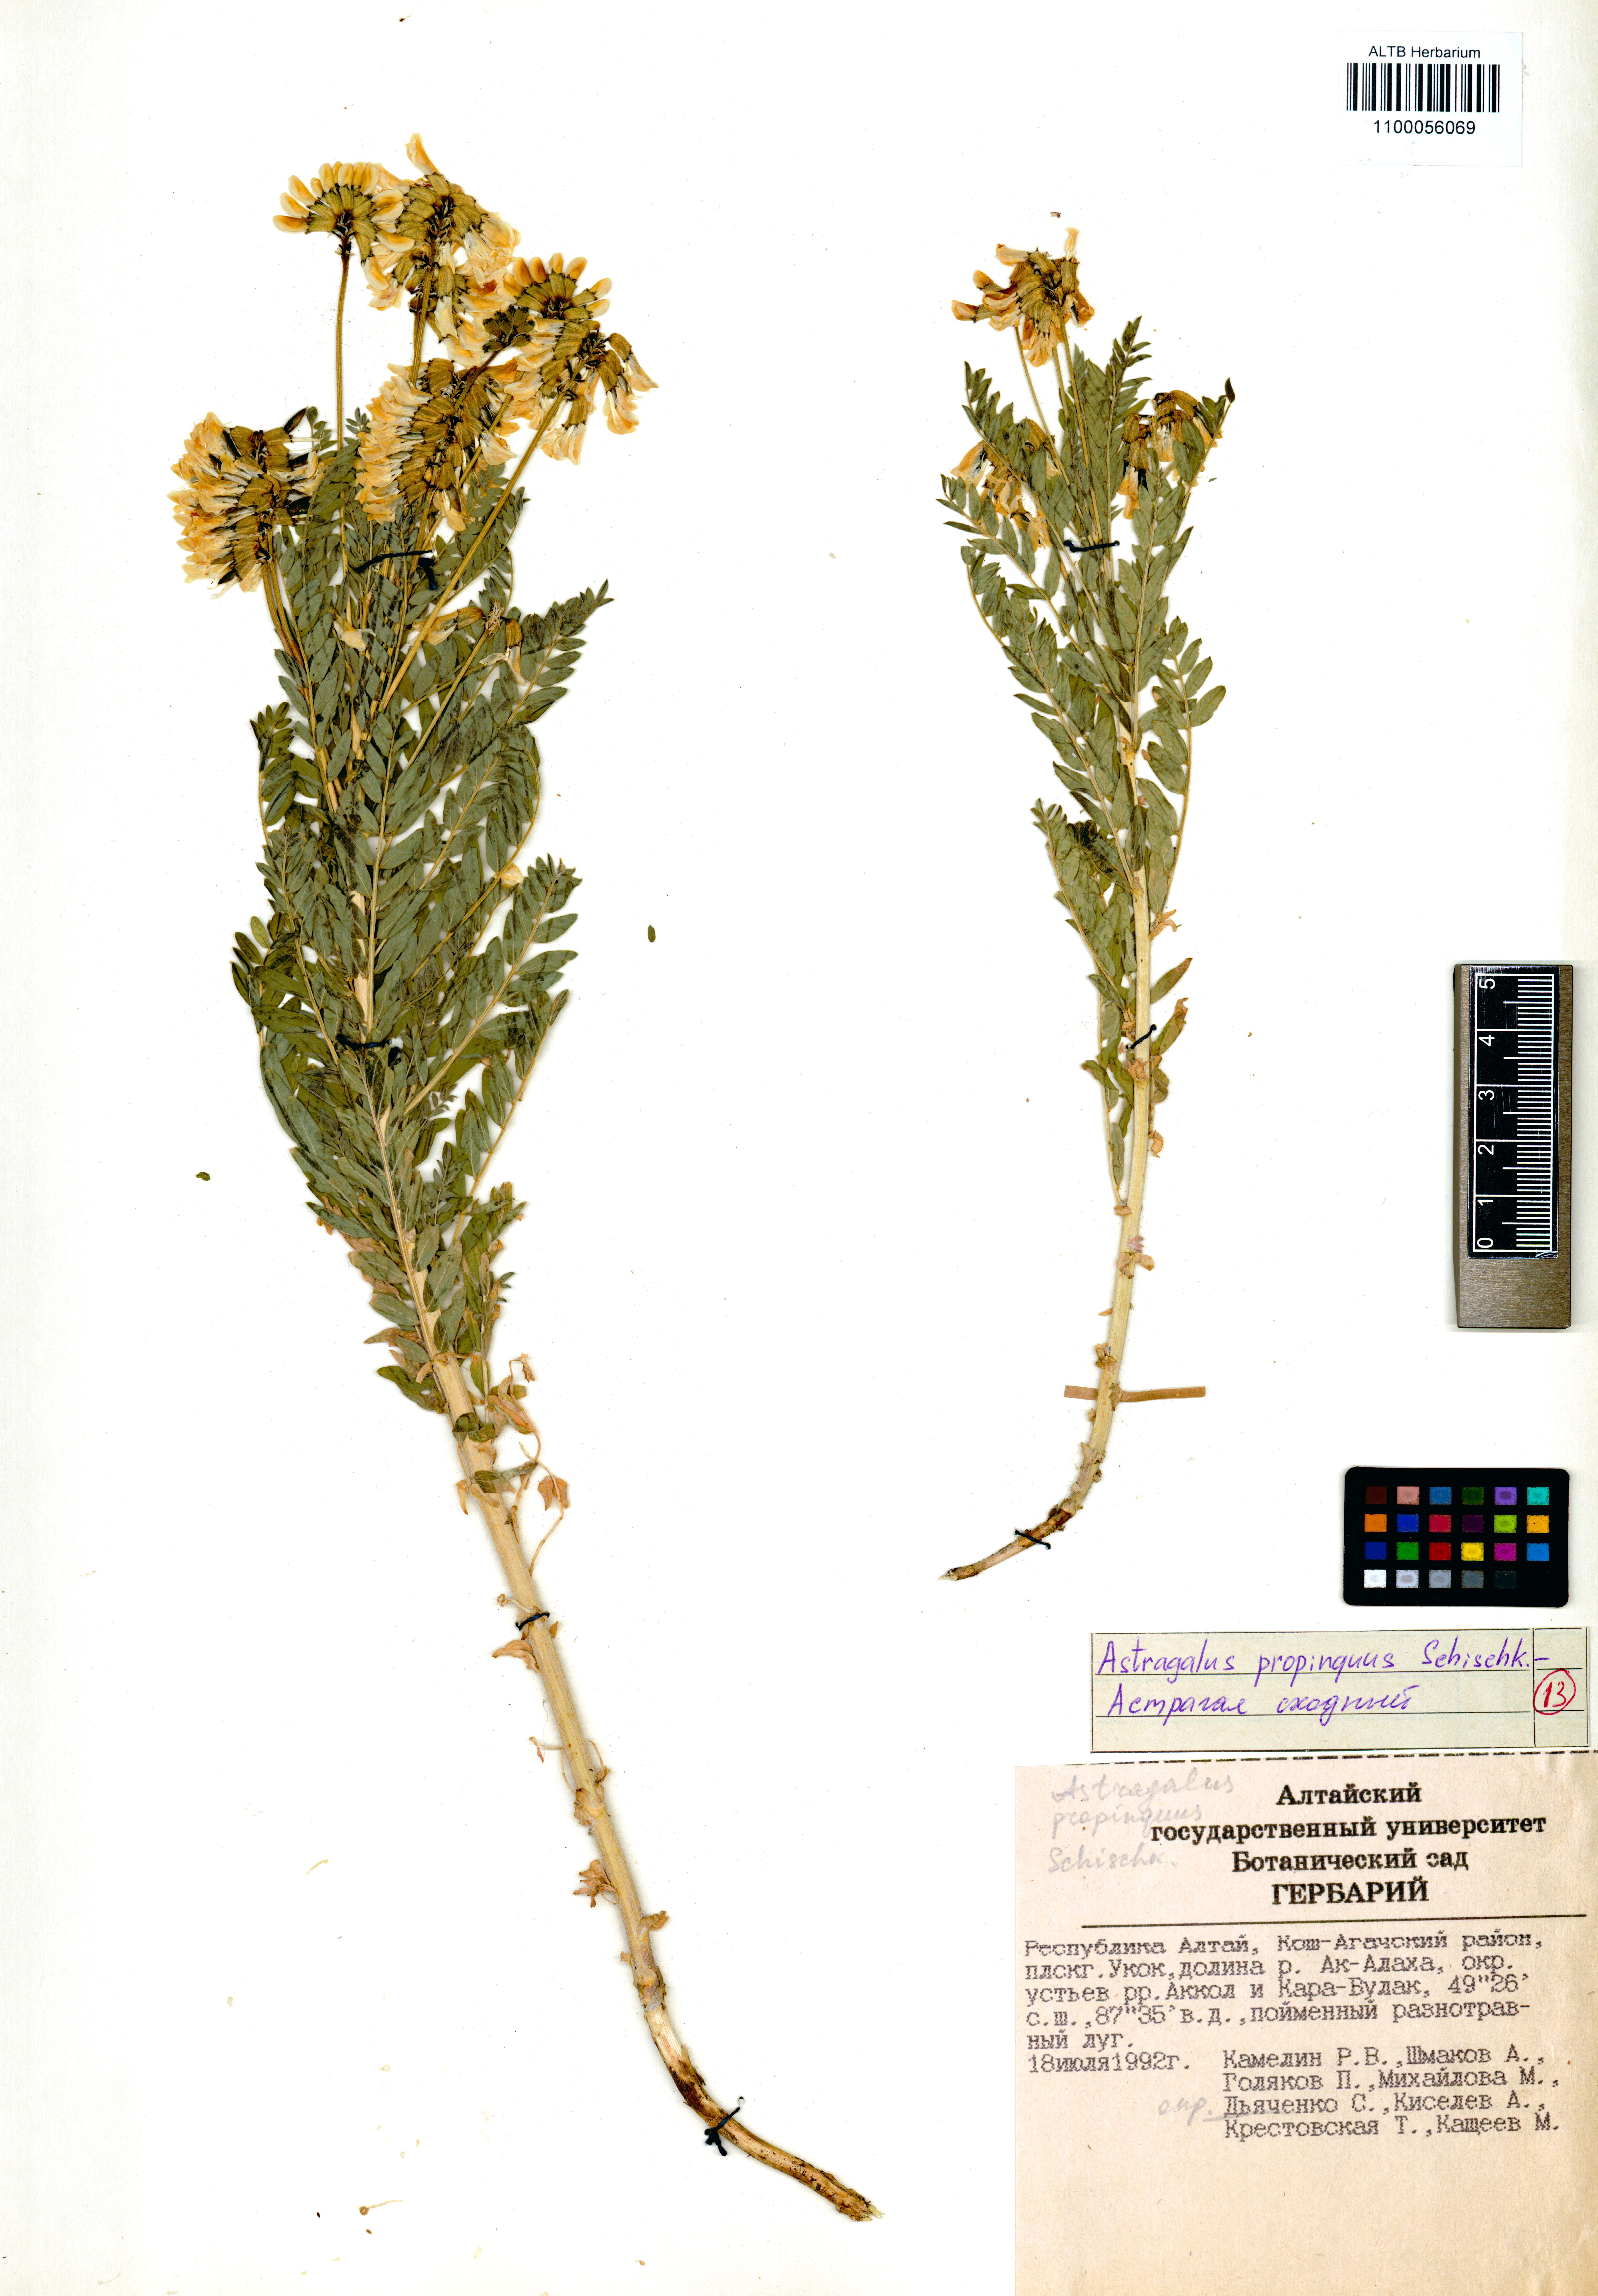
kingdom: Plantae
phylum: Tracheophyta
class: Magnoliopsida
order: Fabales
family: Fabaceae
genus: Astragalus
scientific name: Astragalus mongholicus
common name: Membranous milk-vetch
